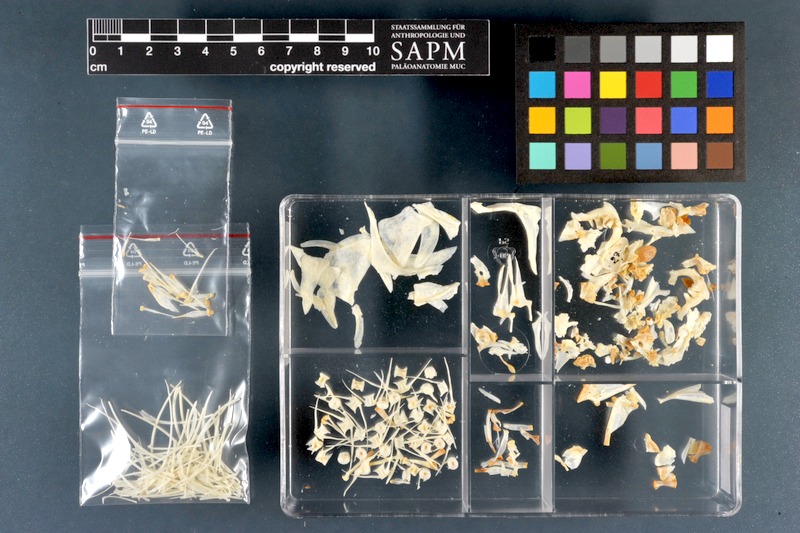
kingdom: Animalia
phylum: Chordata
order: Cypriniformes
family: Cyprinidae
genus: Rutilus
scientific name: Rutilus rutilus
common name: Roach
